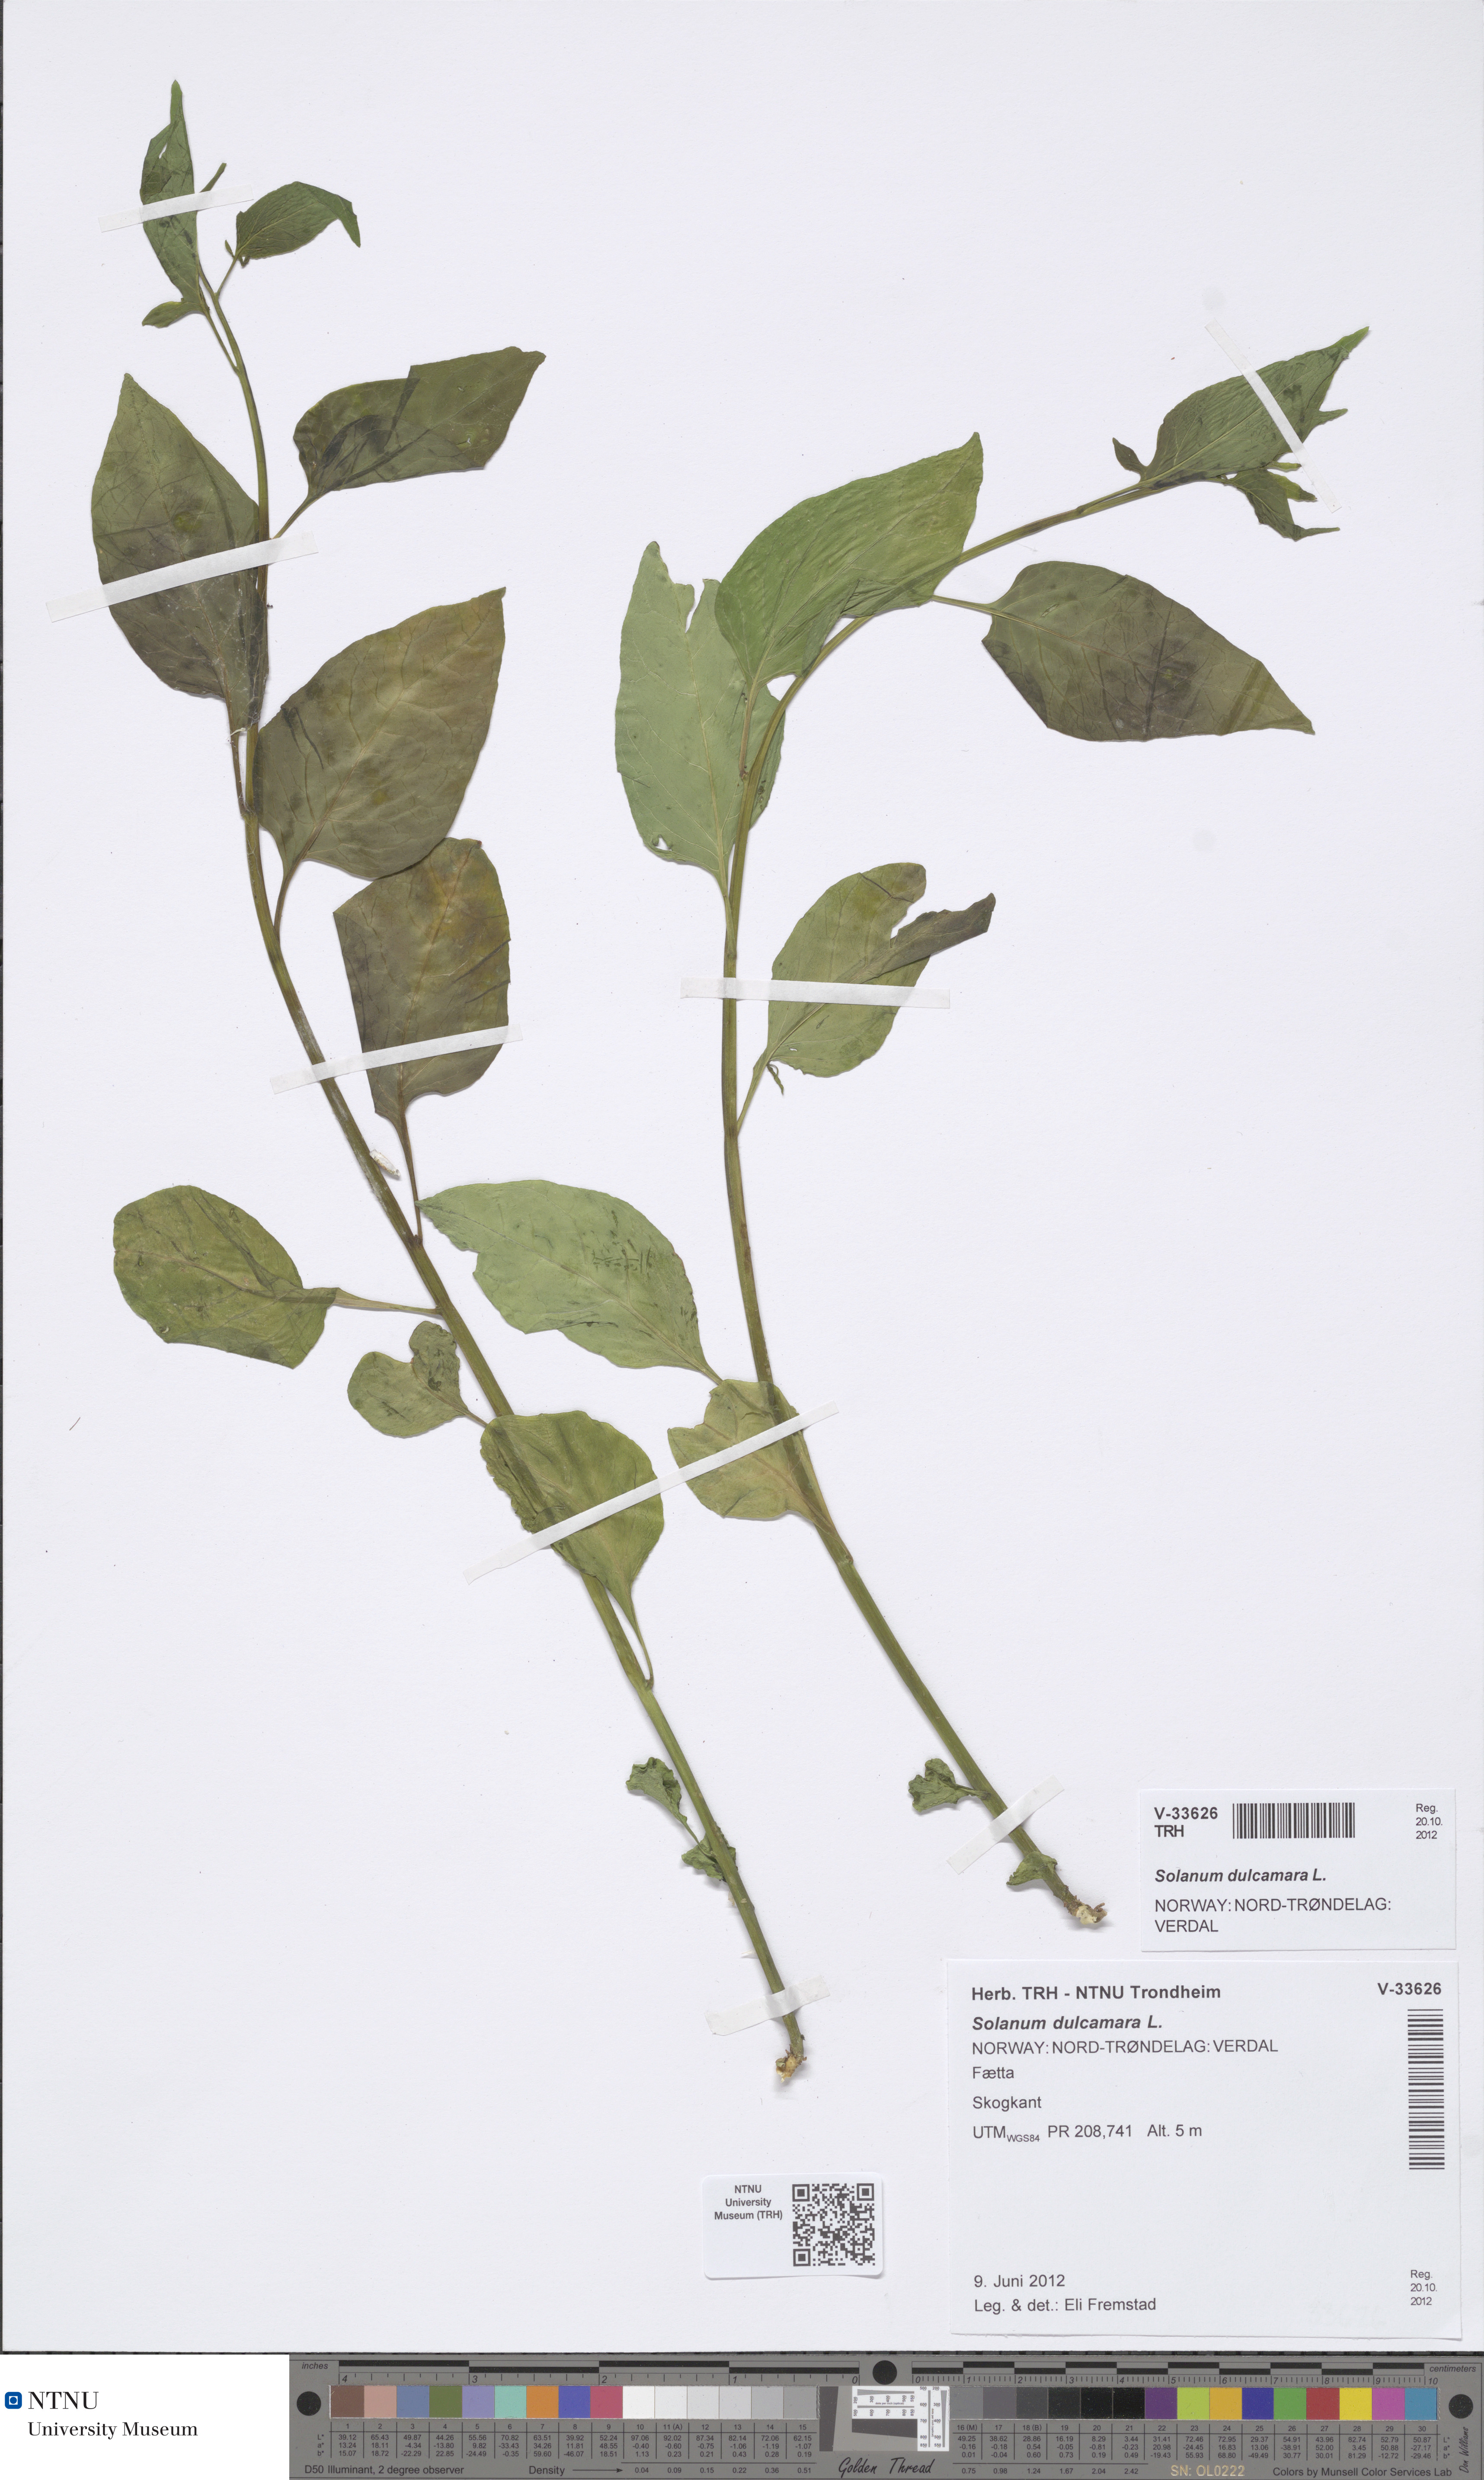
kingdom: Plantae
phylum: Tracheophyta
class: Magnoliopsida
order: Solanales
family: Solanaceae
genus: Solanum
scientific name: Solanum dulcamara
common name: Climbing nightshade
